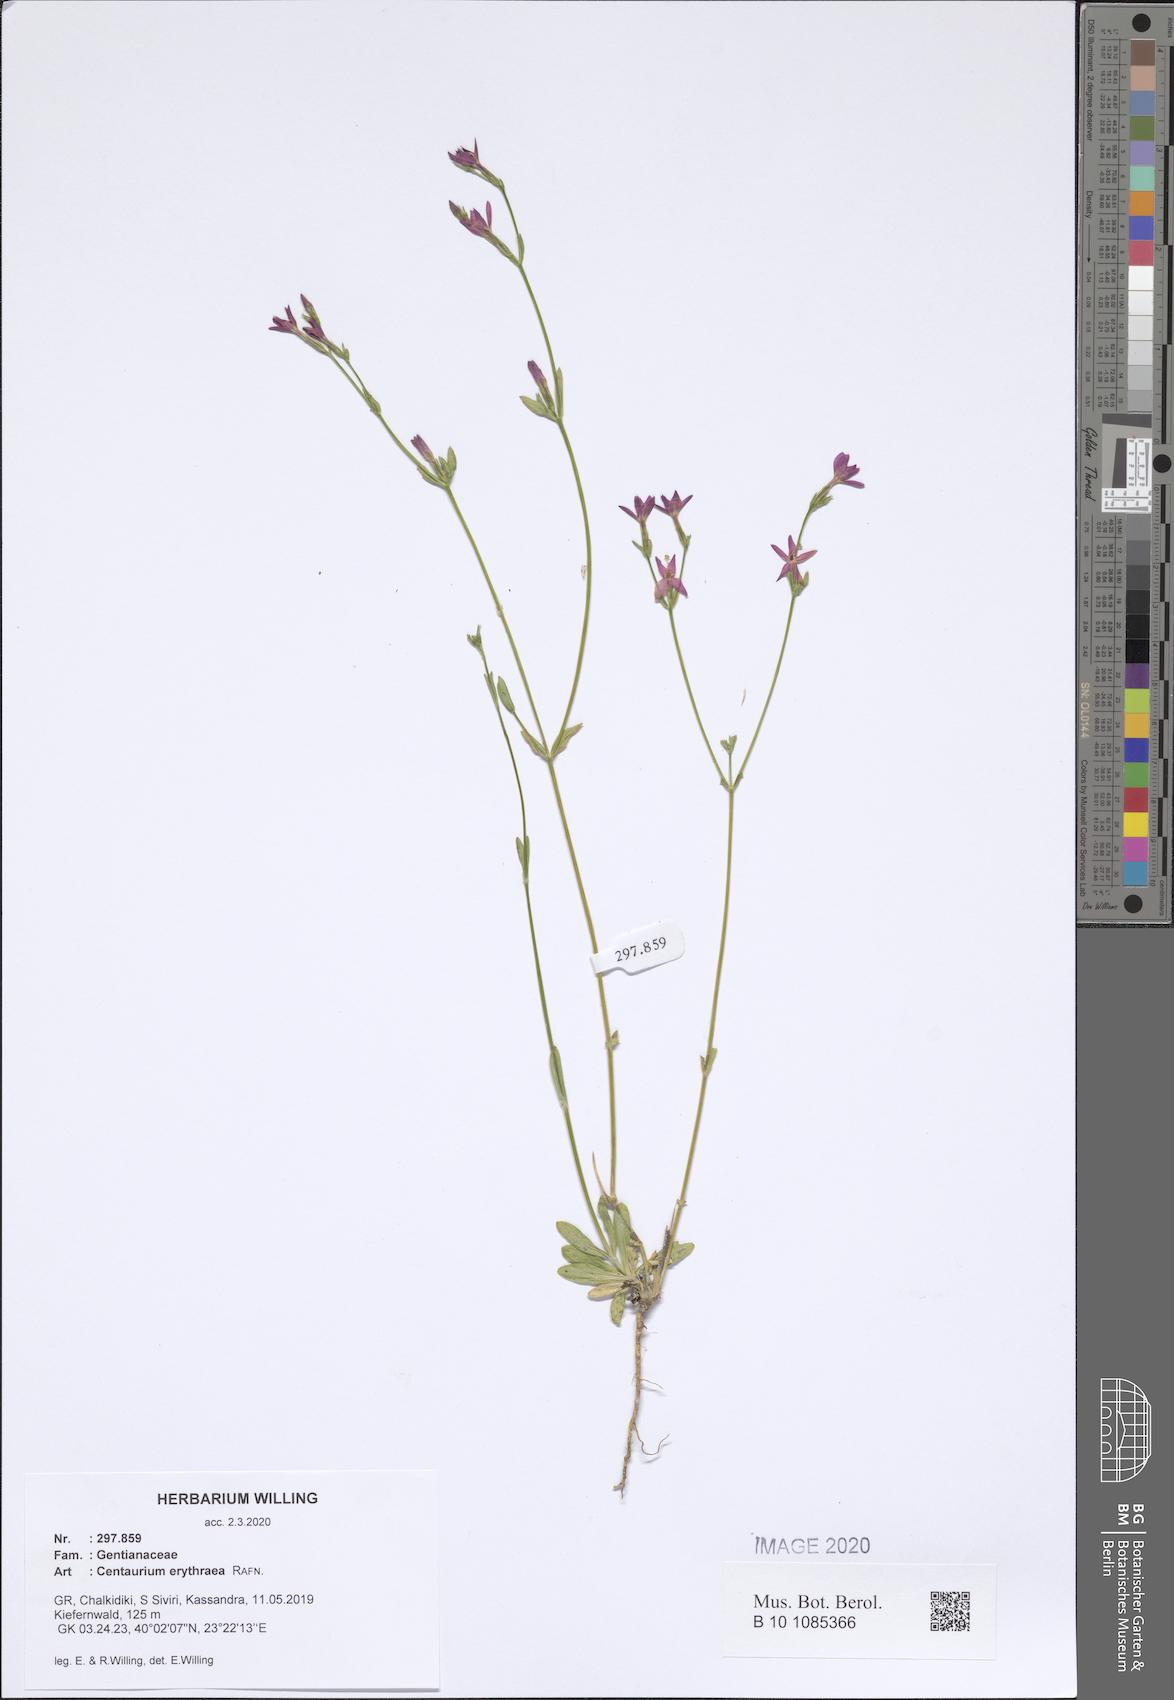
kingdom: Plantae
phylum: Tracheophyta
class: Magnoliopsida
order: Gentianales
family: Gentianaceae
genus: Centaurium
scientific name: Centaurium erythraea
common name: Common centaury
